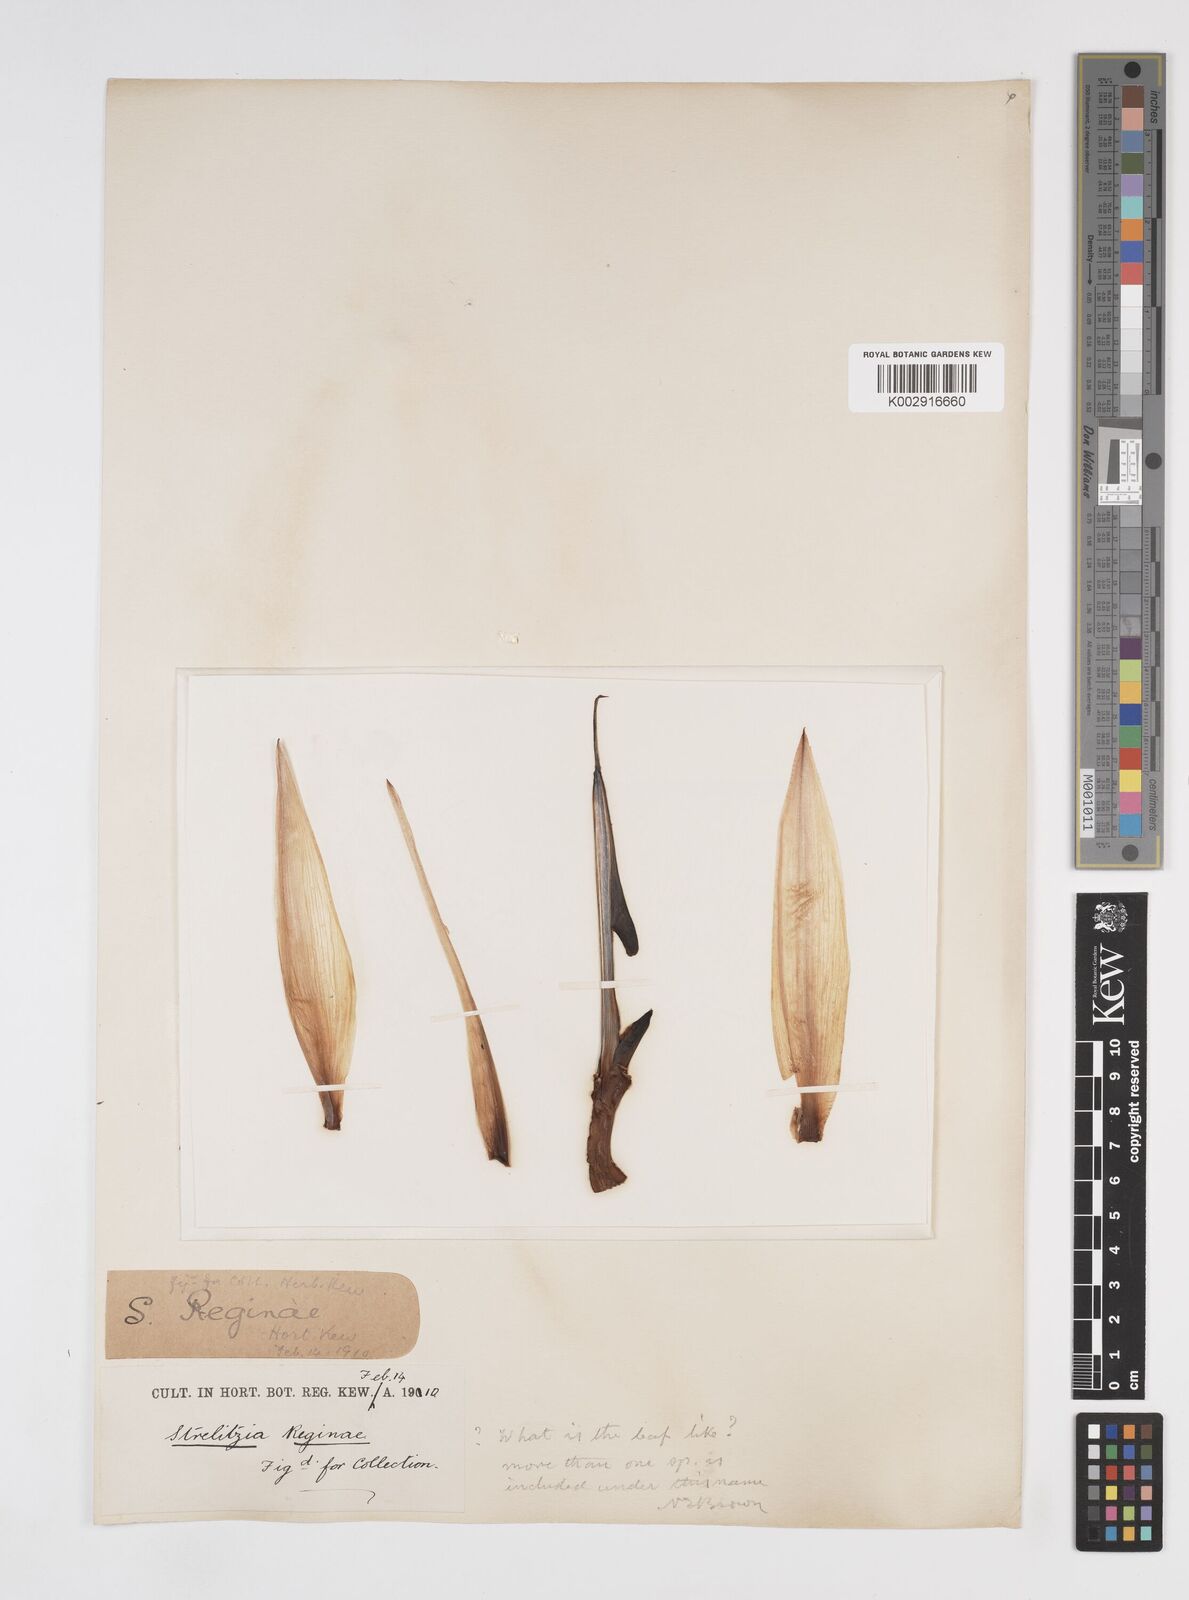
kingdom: Plantae
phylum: Tracheophyta
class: Liliopsida
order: Zingiberales
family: Strelitziaceae
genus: Strelitzia
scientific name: Strelitzia kewensis
